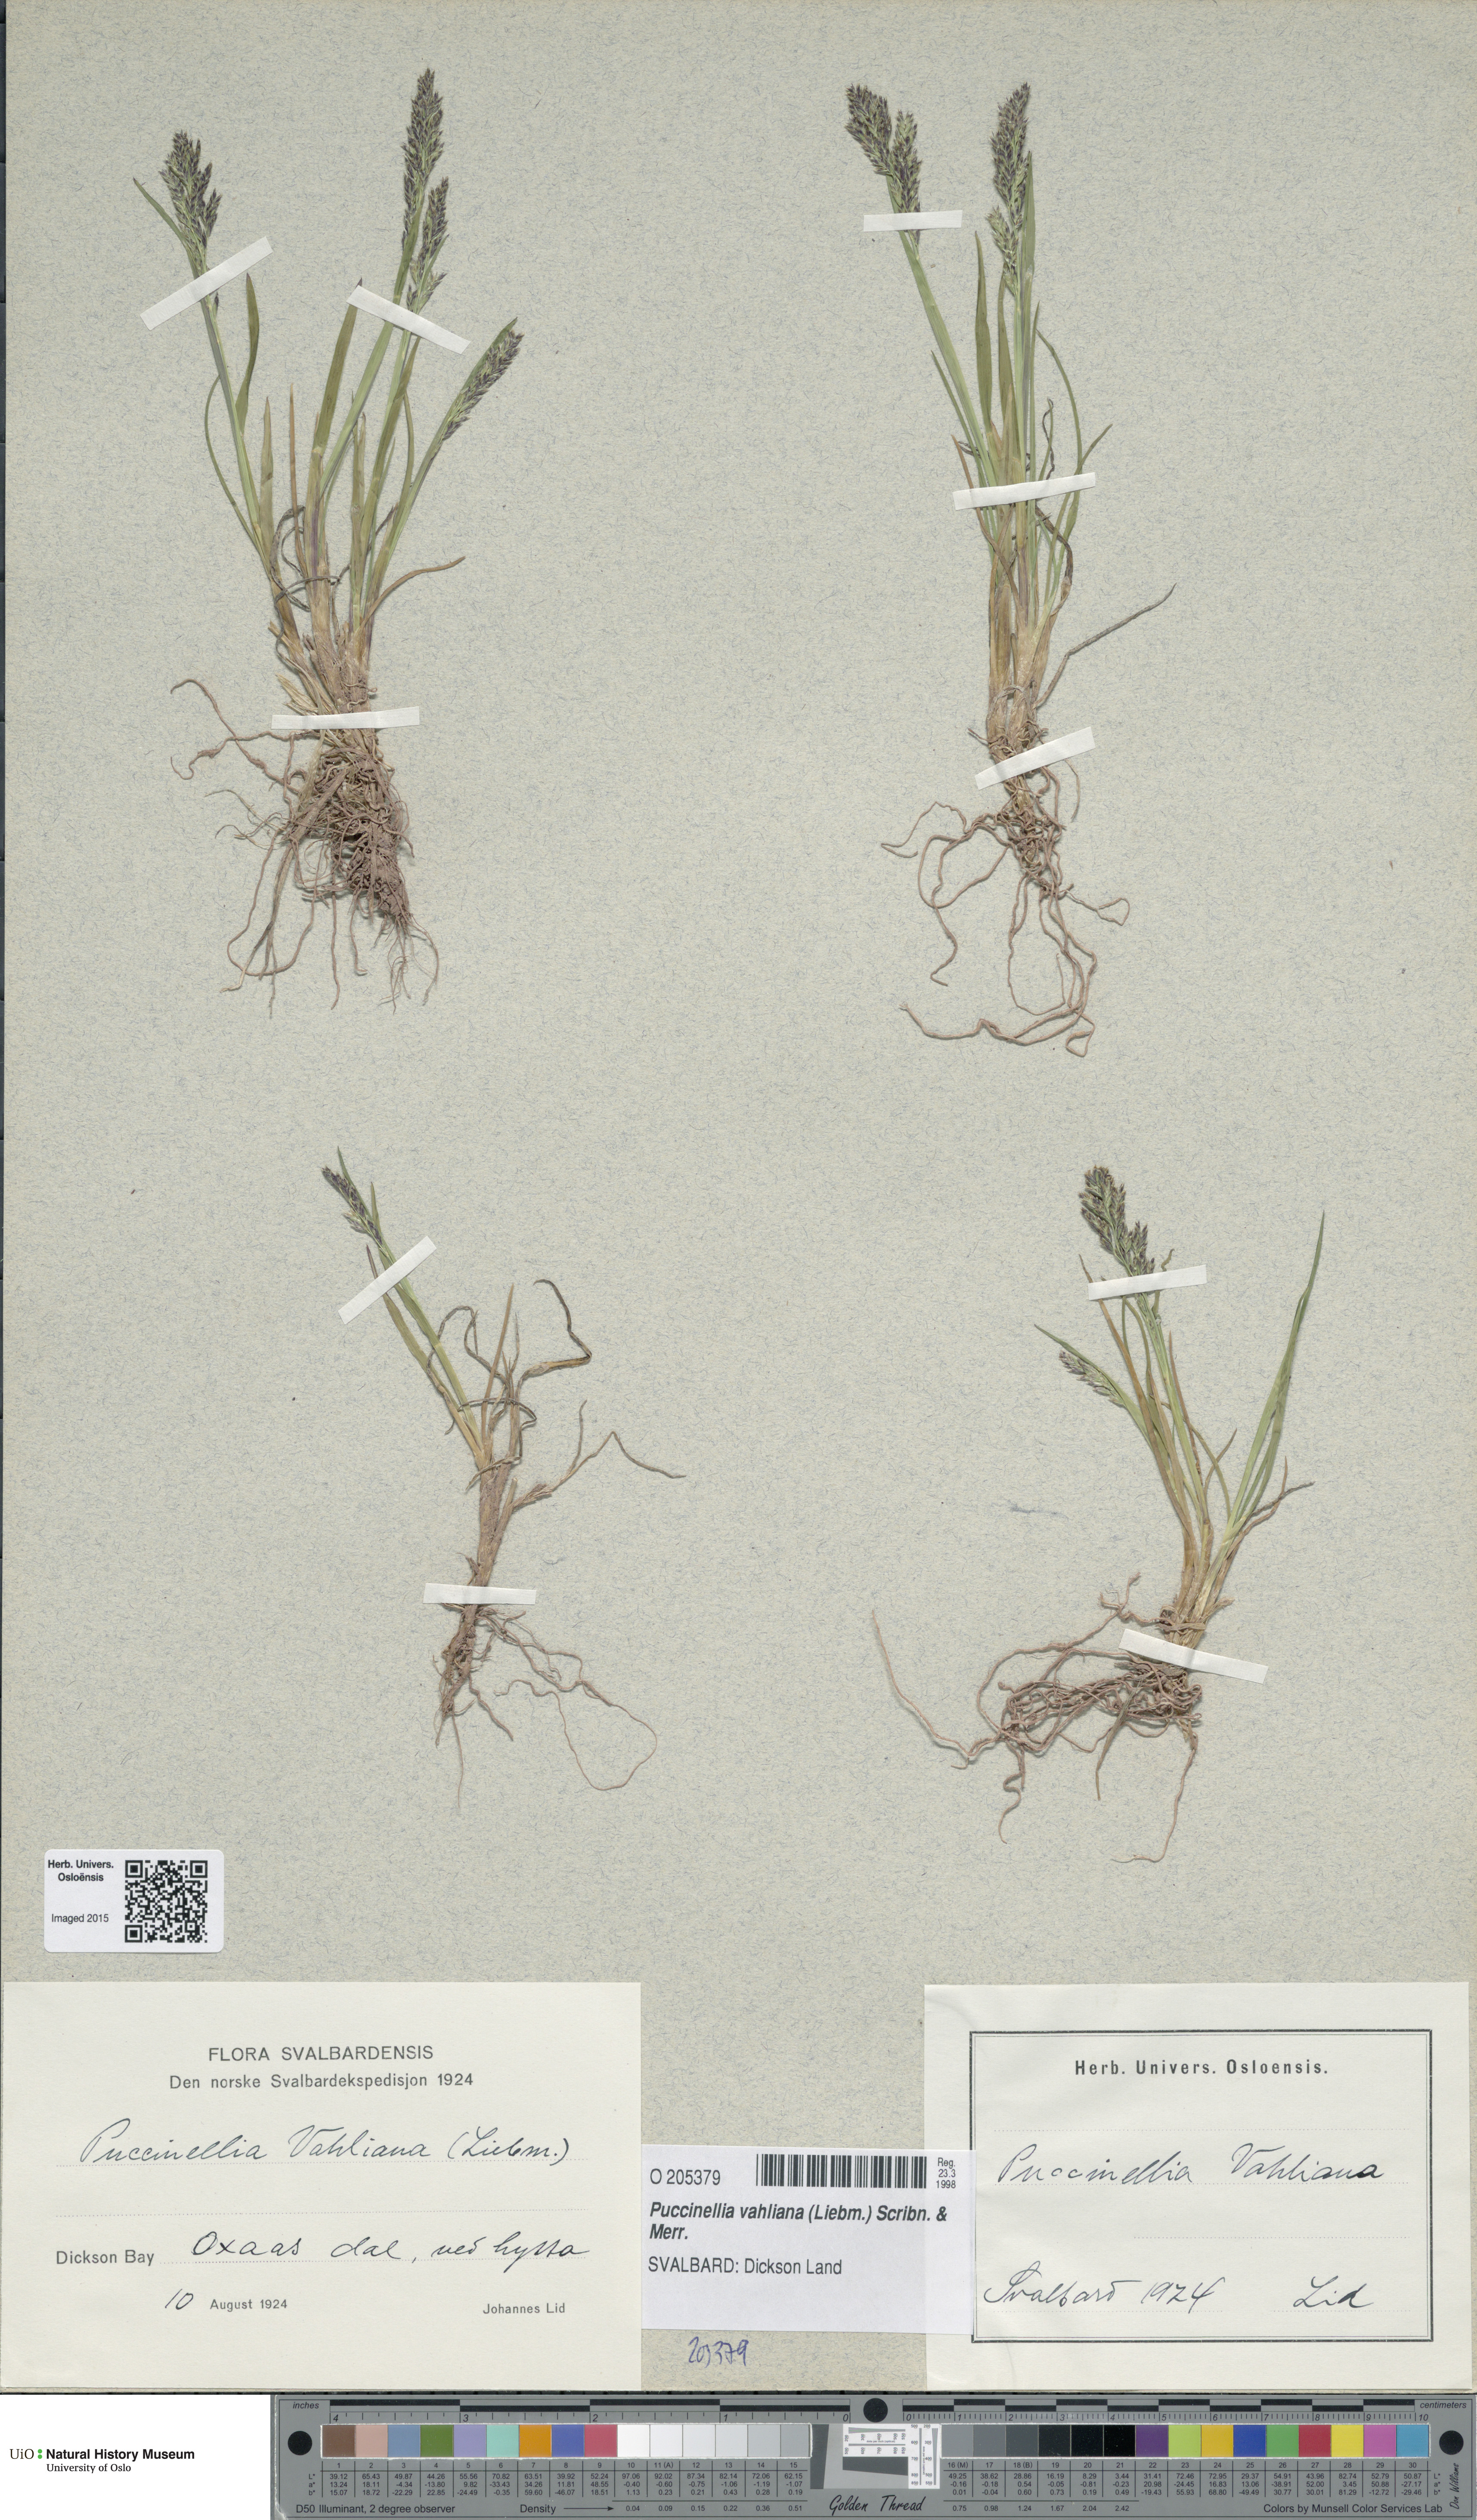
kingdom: Plantae
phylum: Tracheophyta
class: Liliopsida
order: Poales
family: Poaceae
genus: Puccinellia
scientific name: Puccinellia vahliana
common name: Vahl's alkaligrass
